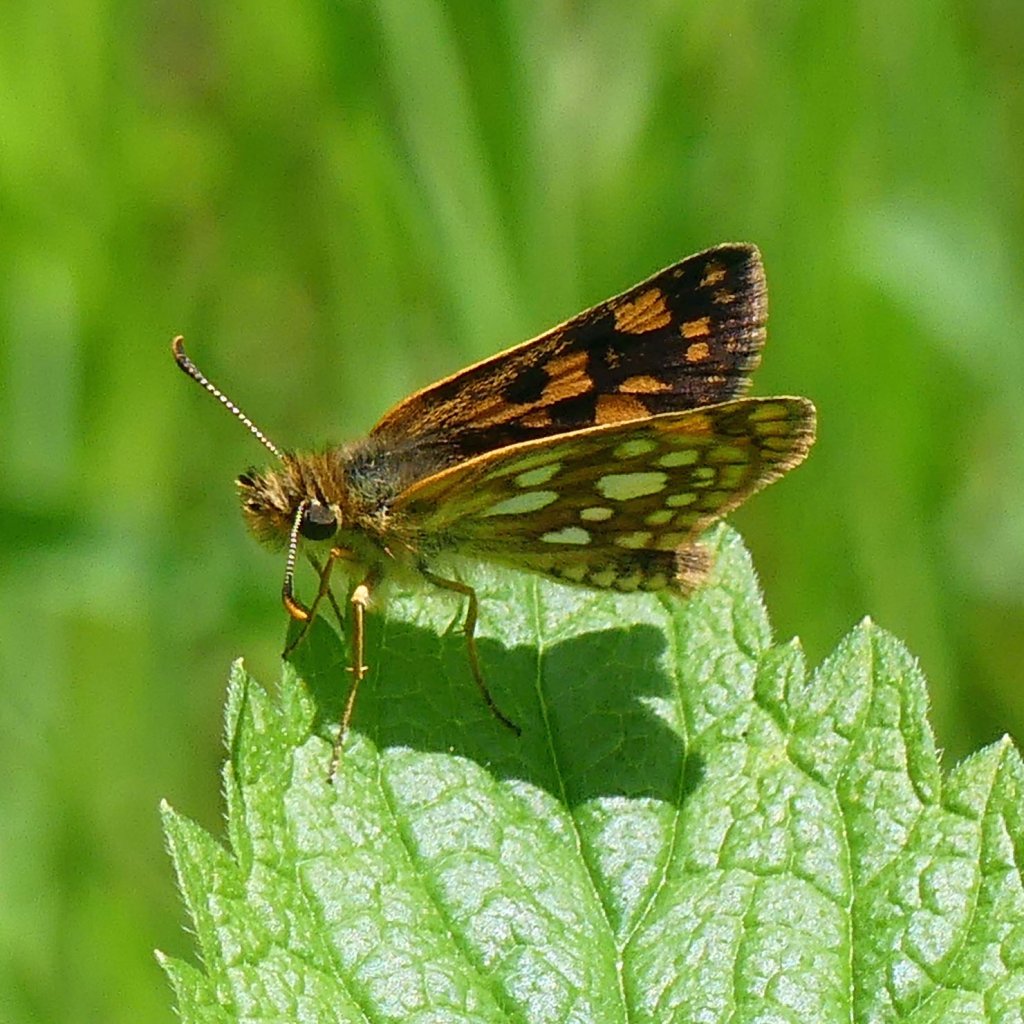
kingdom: Animalia
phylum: Arthropoda
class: Insecta
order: Lepidoptera
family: Hesperiidae
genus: Carterocephalus
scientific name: Carterocephalus palaemon
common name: Chequered Skipper
